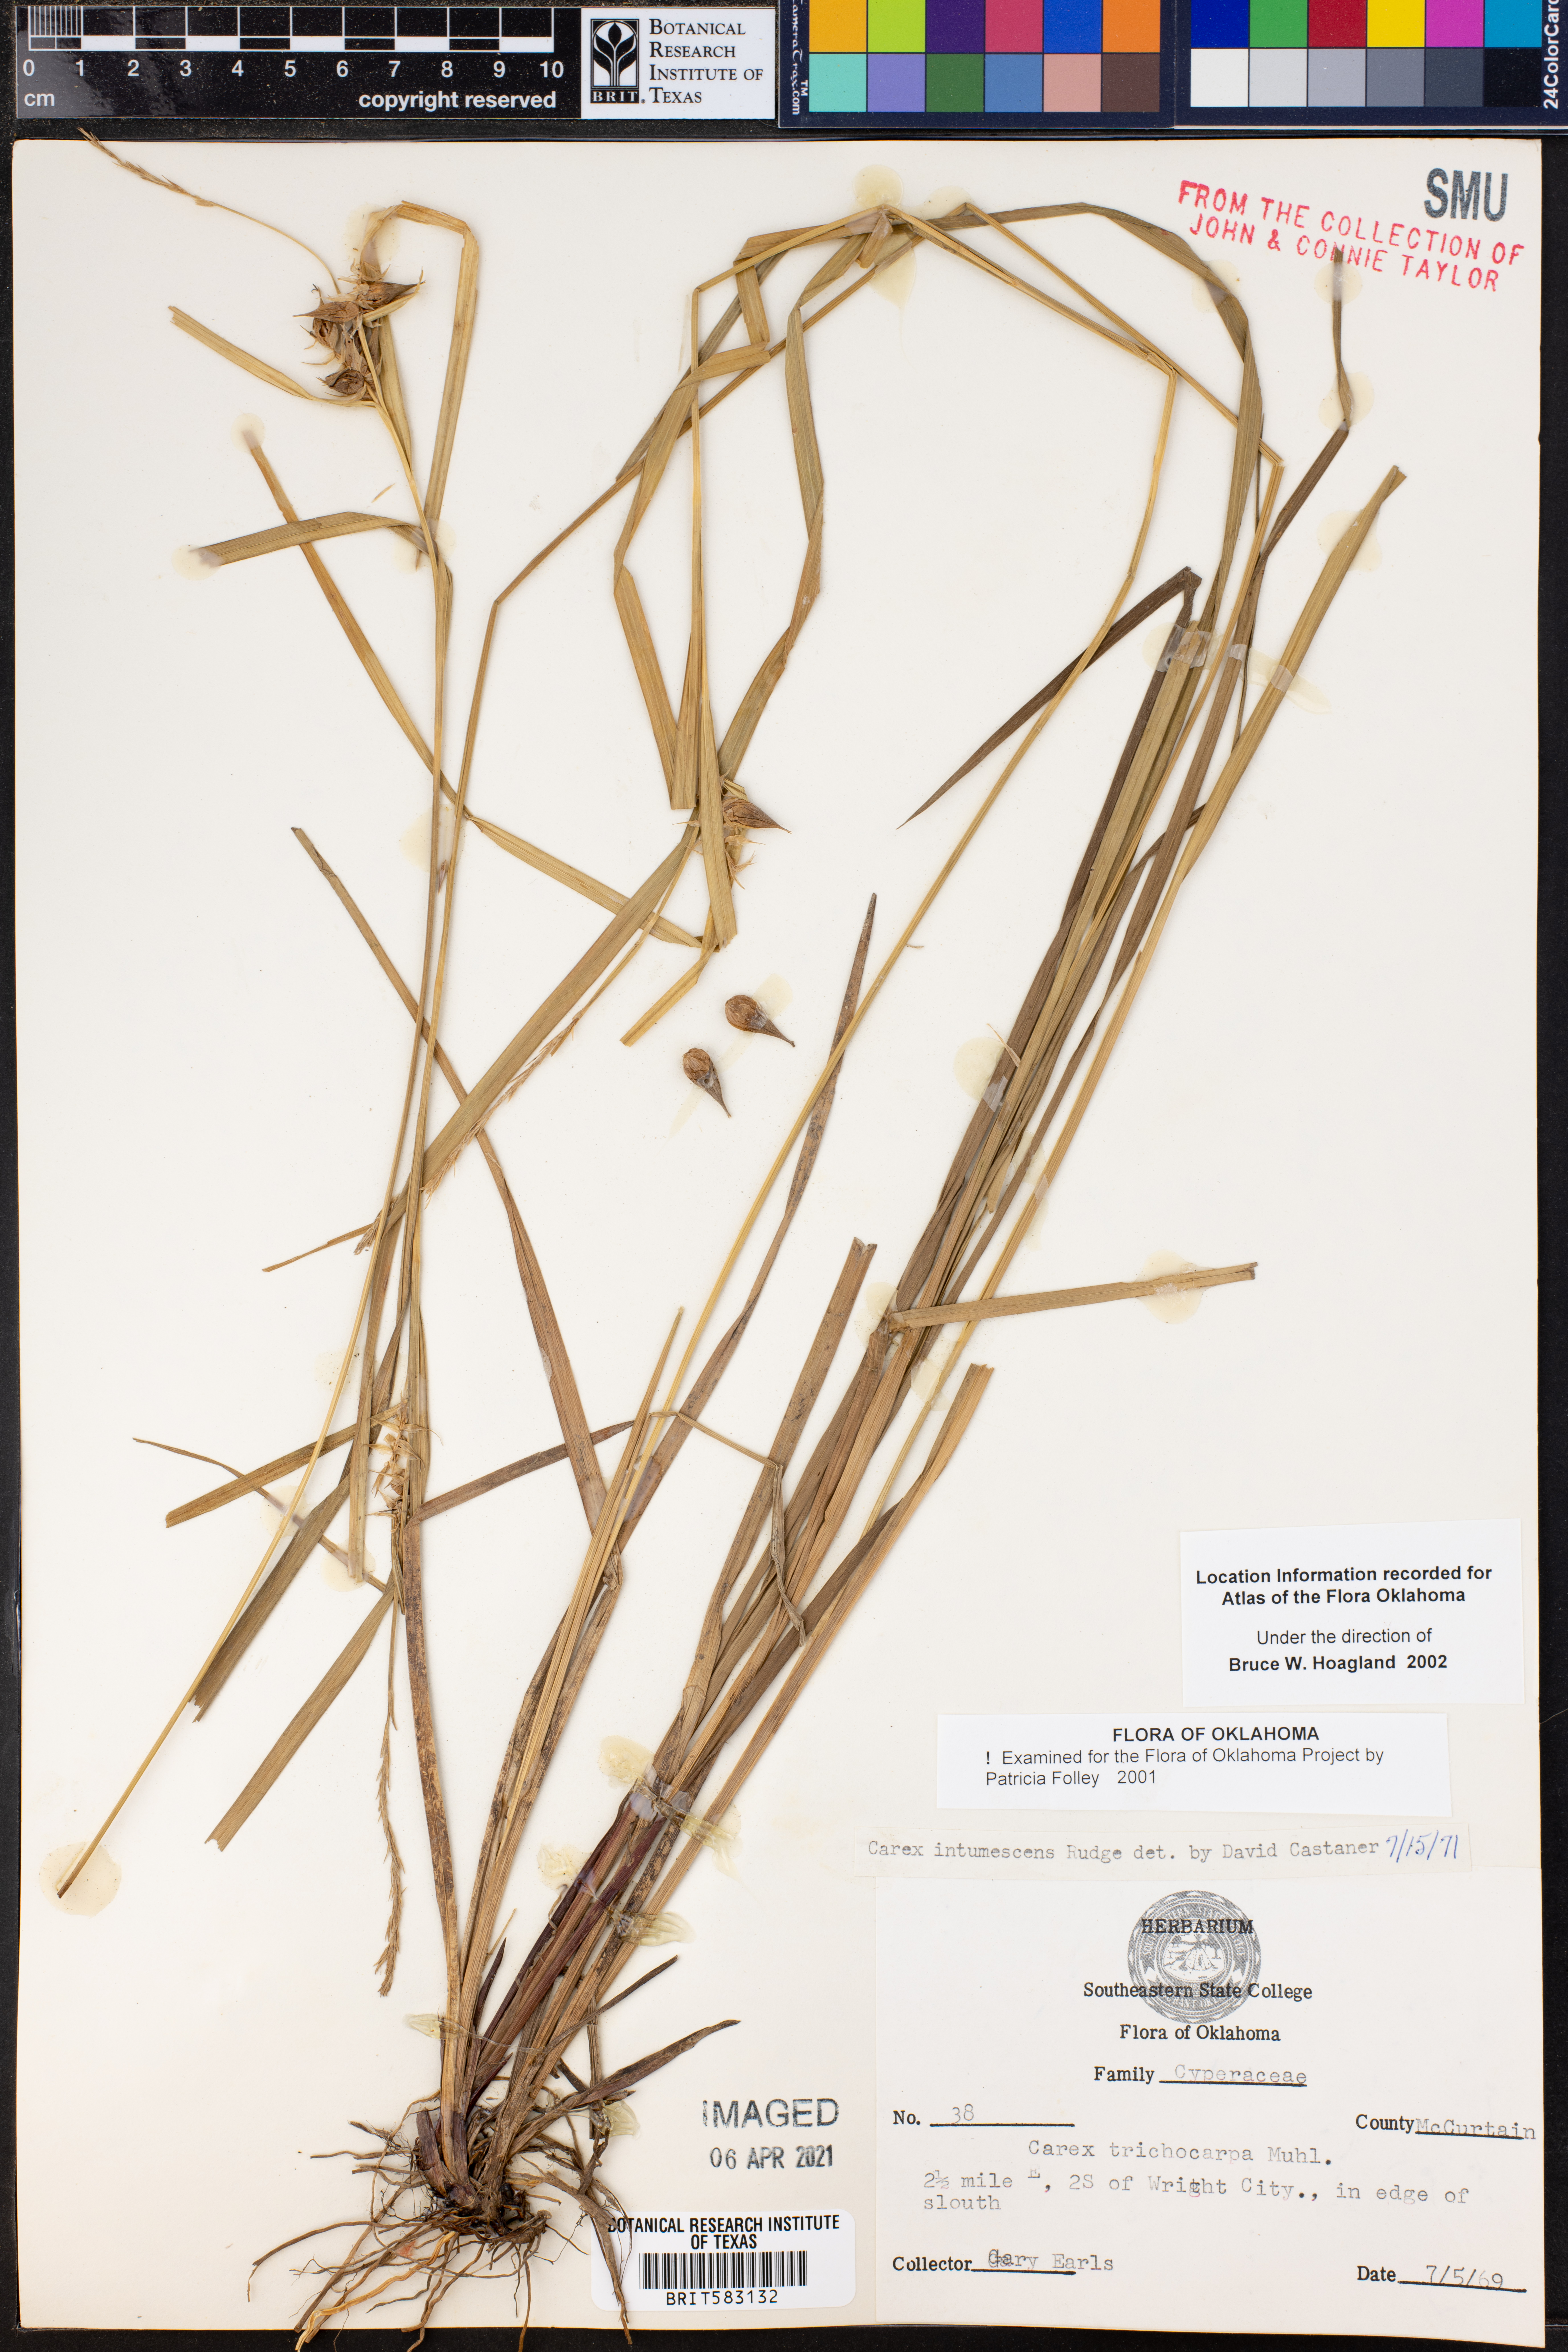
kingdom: Plantae
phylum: Tracheophyta
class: Liliopsida
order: Poales
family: Cyperaceae
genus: Carex
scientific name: Carex intumescens
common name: Greater bladder sedge
